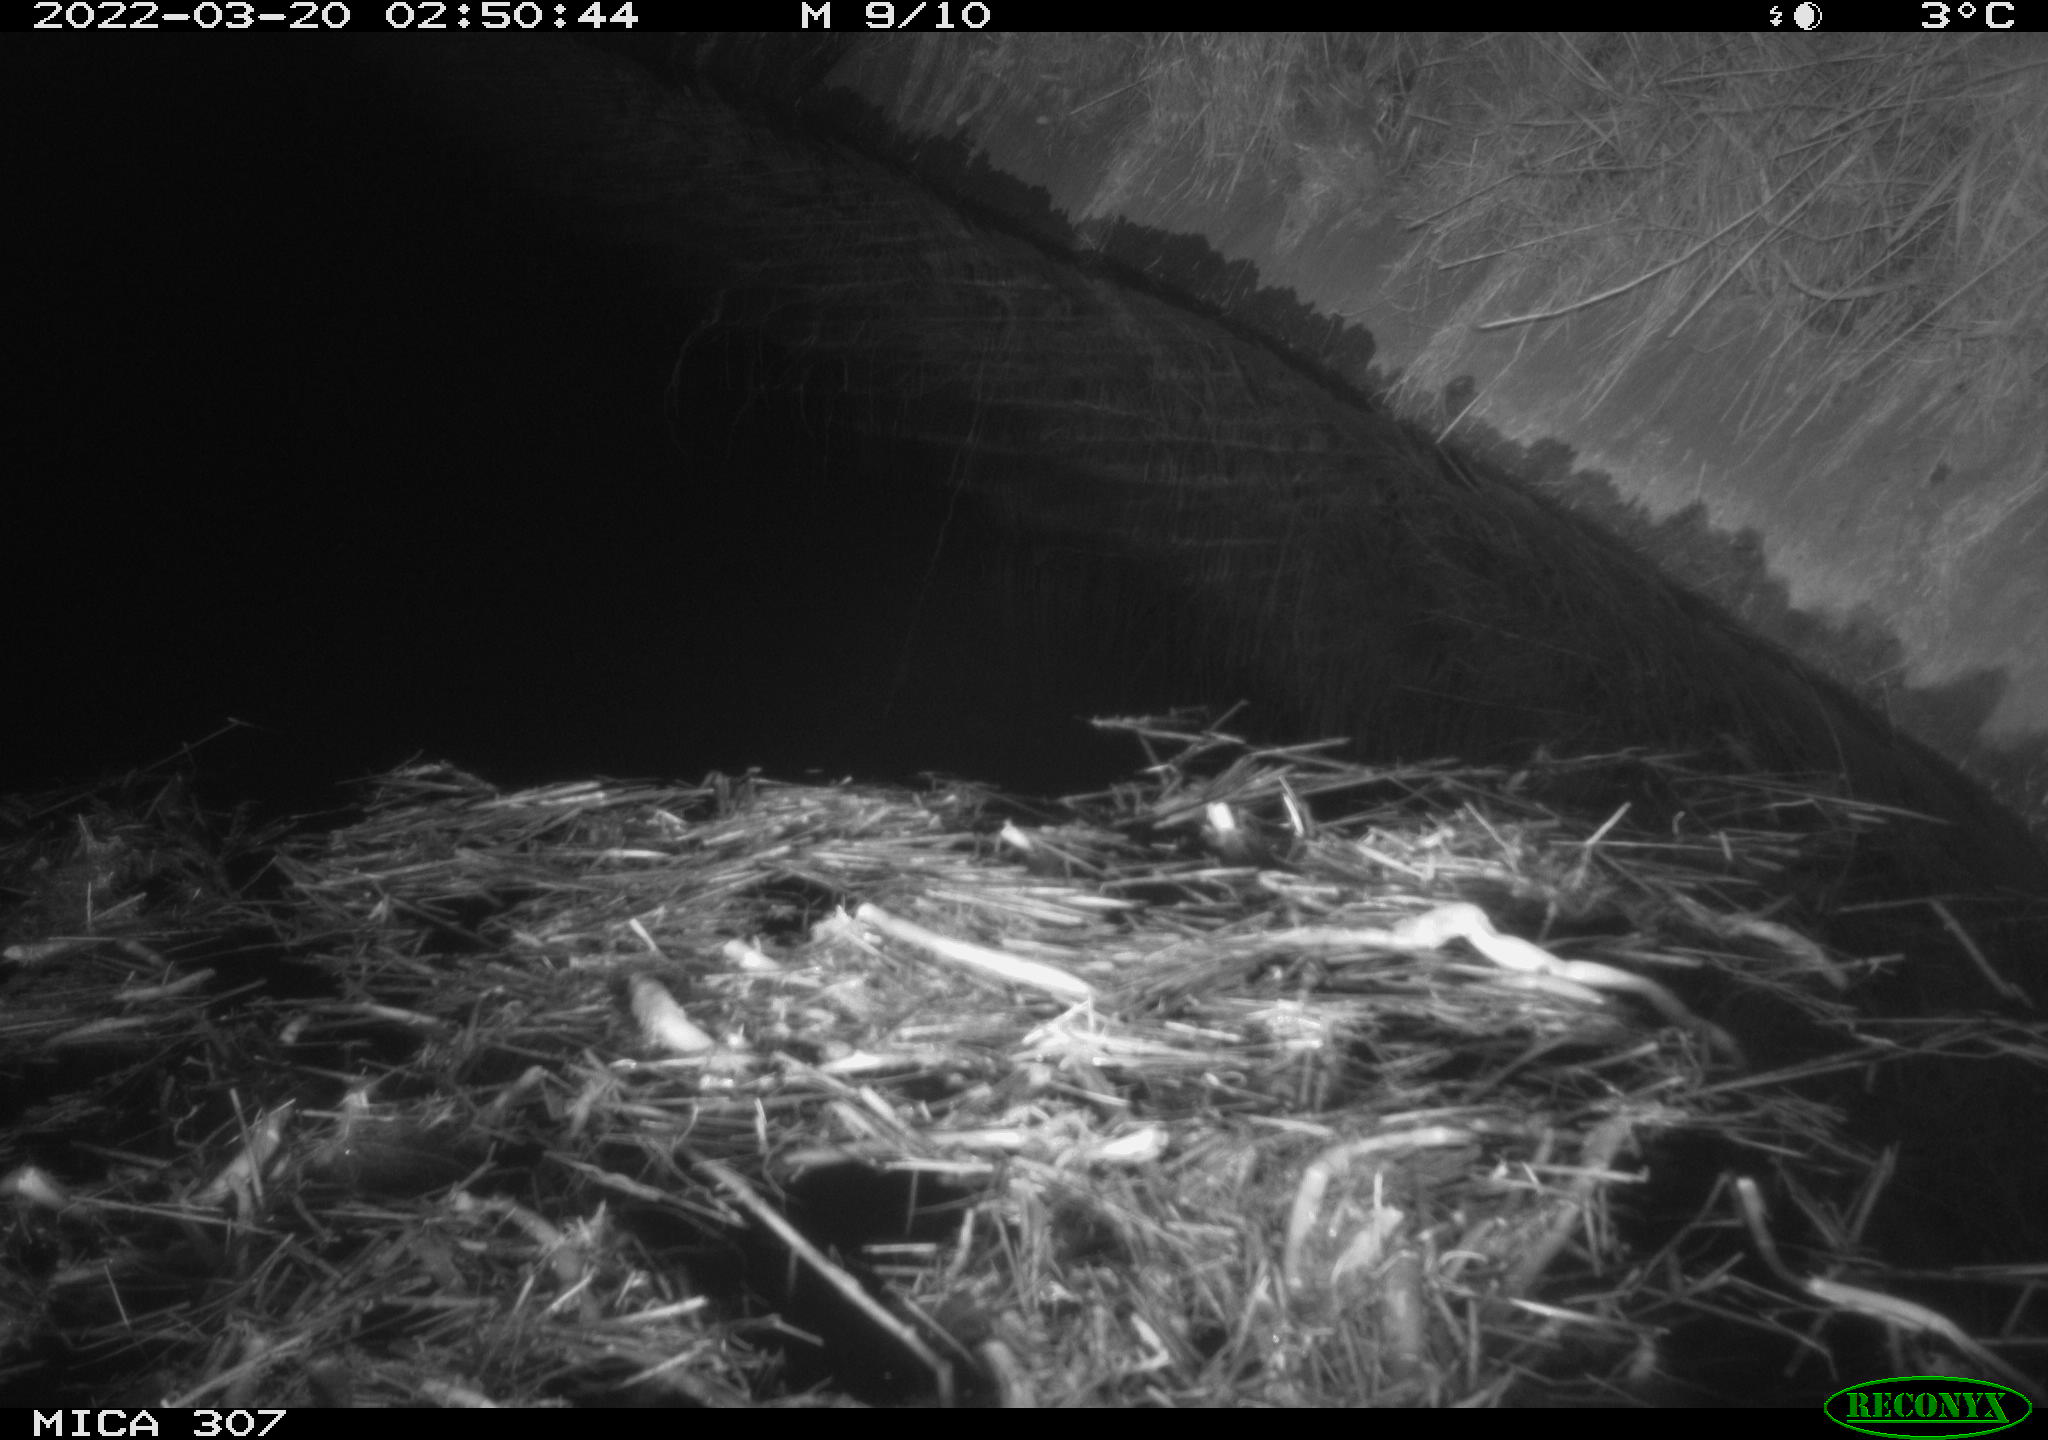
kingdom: Animalia
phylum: Chordata
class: Aves
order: Anseriformes
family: Anatidae
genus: Anas
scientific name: Anas platyrhynchos
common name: Mallard
